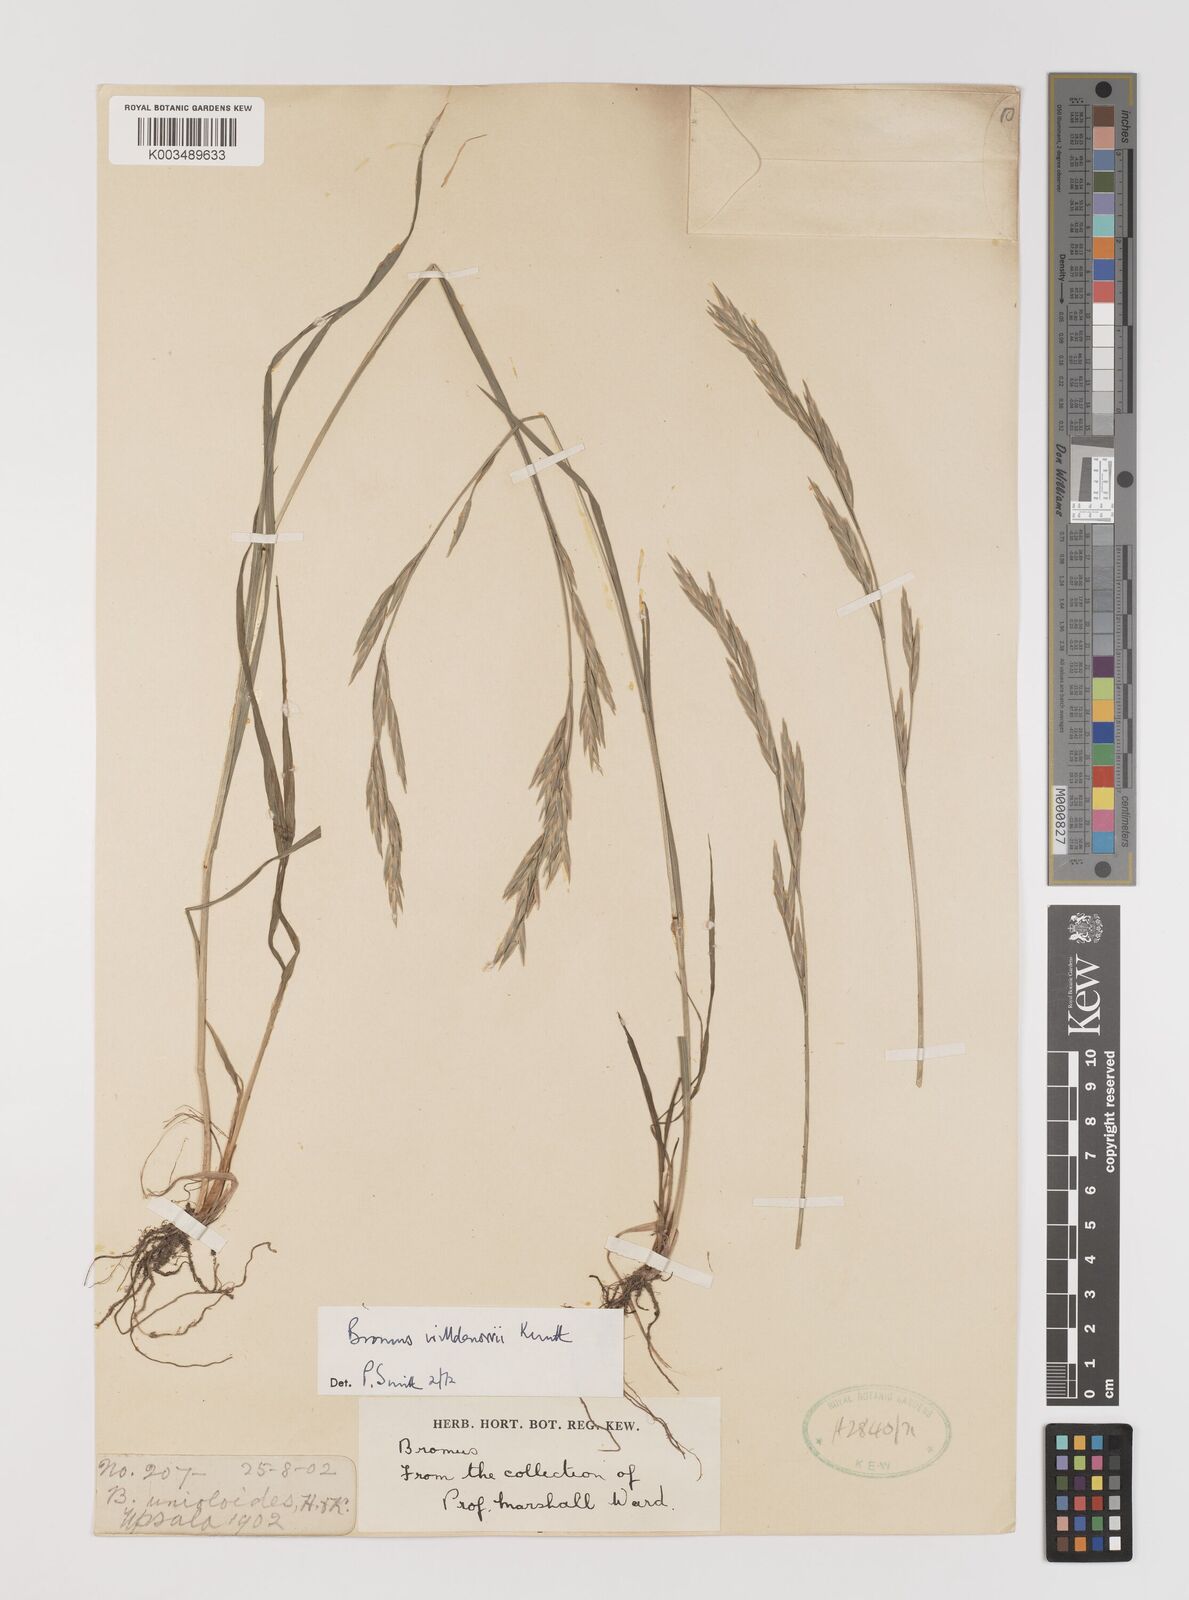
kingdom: Plantae
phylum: Tracheophyta
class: Liliopsida
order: Poales
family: Poaceae
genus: Bromus
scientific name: Bromus catharticus
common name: Rescuegrass
